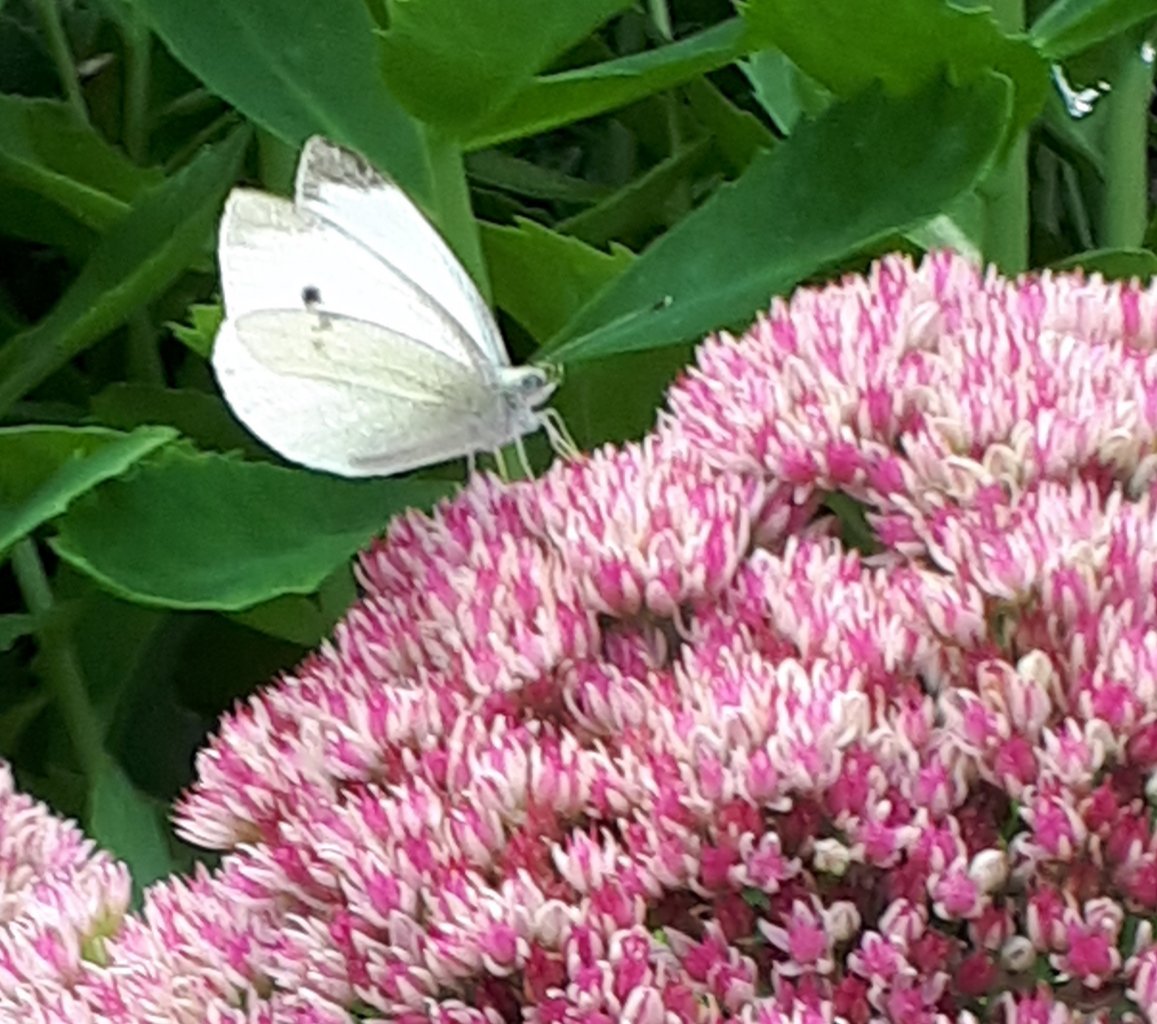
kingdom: Animalia
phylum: Arthropoda
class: Insecta
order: Lepidoptera
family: Pieridae
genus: Pieris
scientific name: Pieris rapae
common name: Cabbage White
